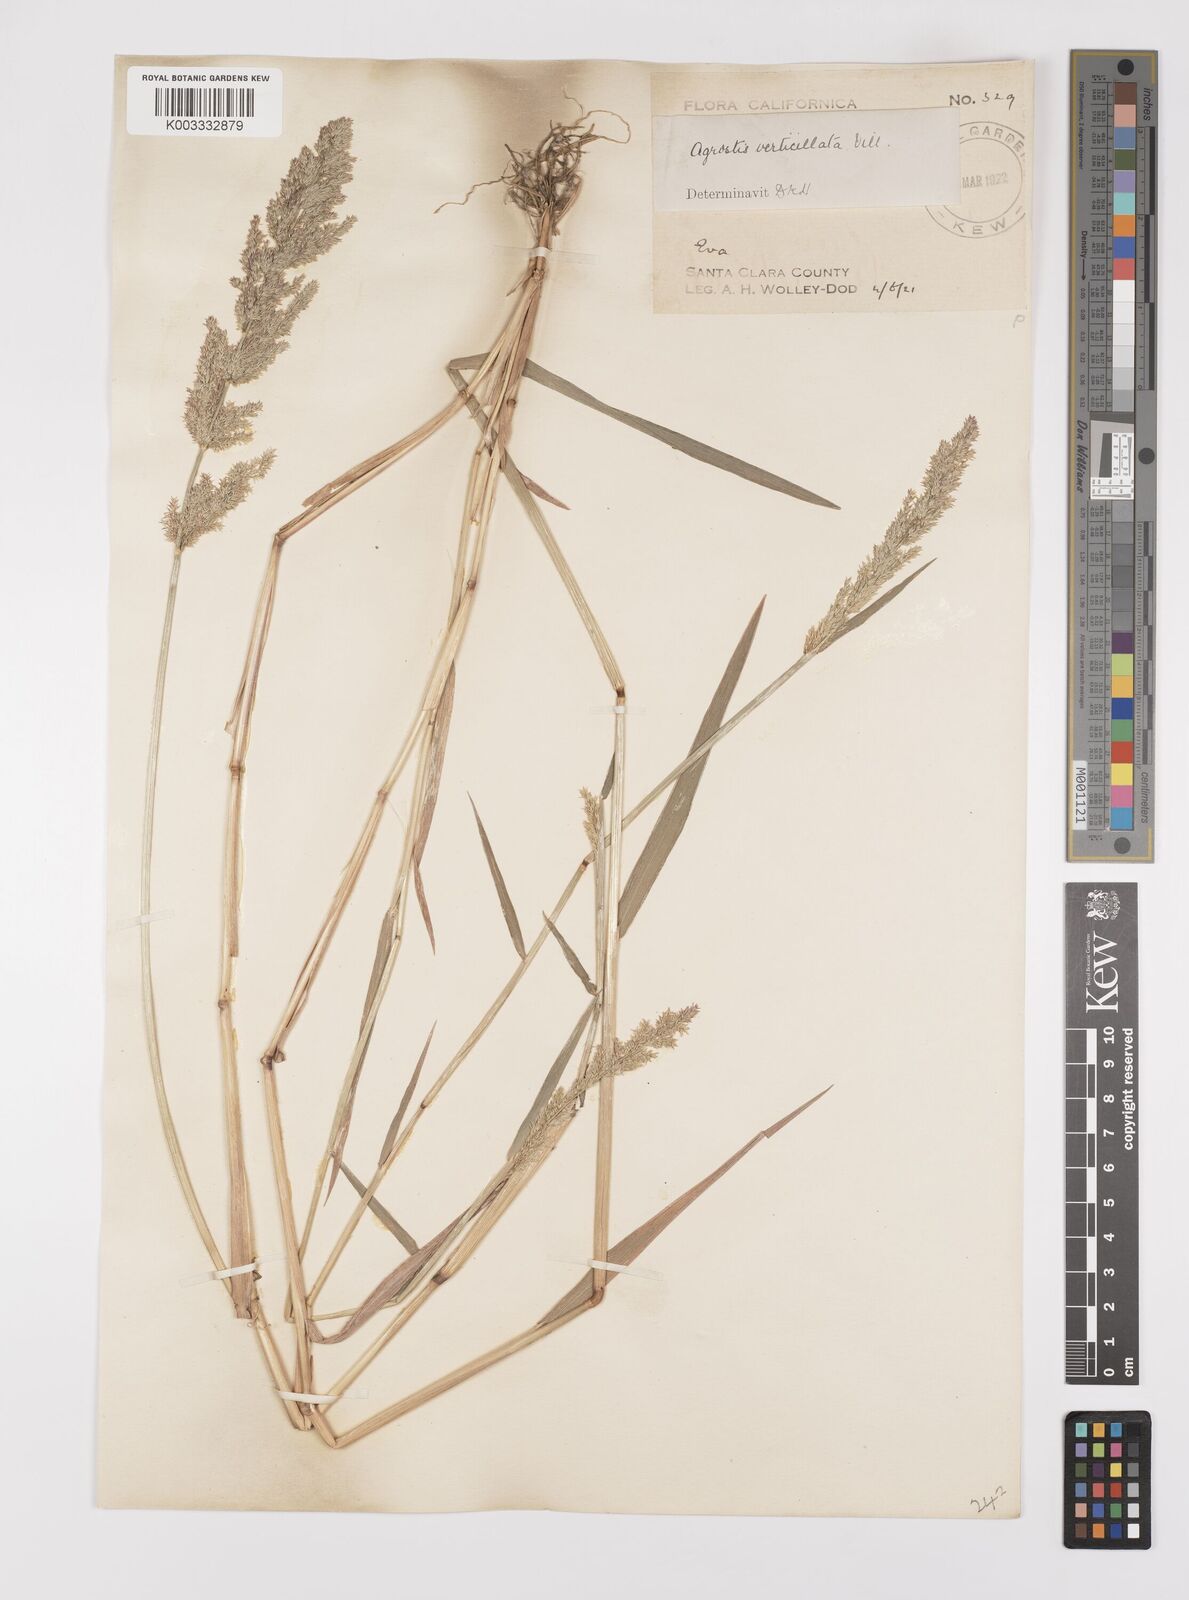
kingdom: Plantae
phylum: Tracheophyta
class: Liliopsida
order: Poales
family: Poaceae
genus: Polypogon
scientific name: Polypogon viridis
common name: Water bent
